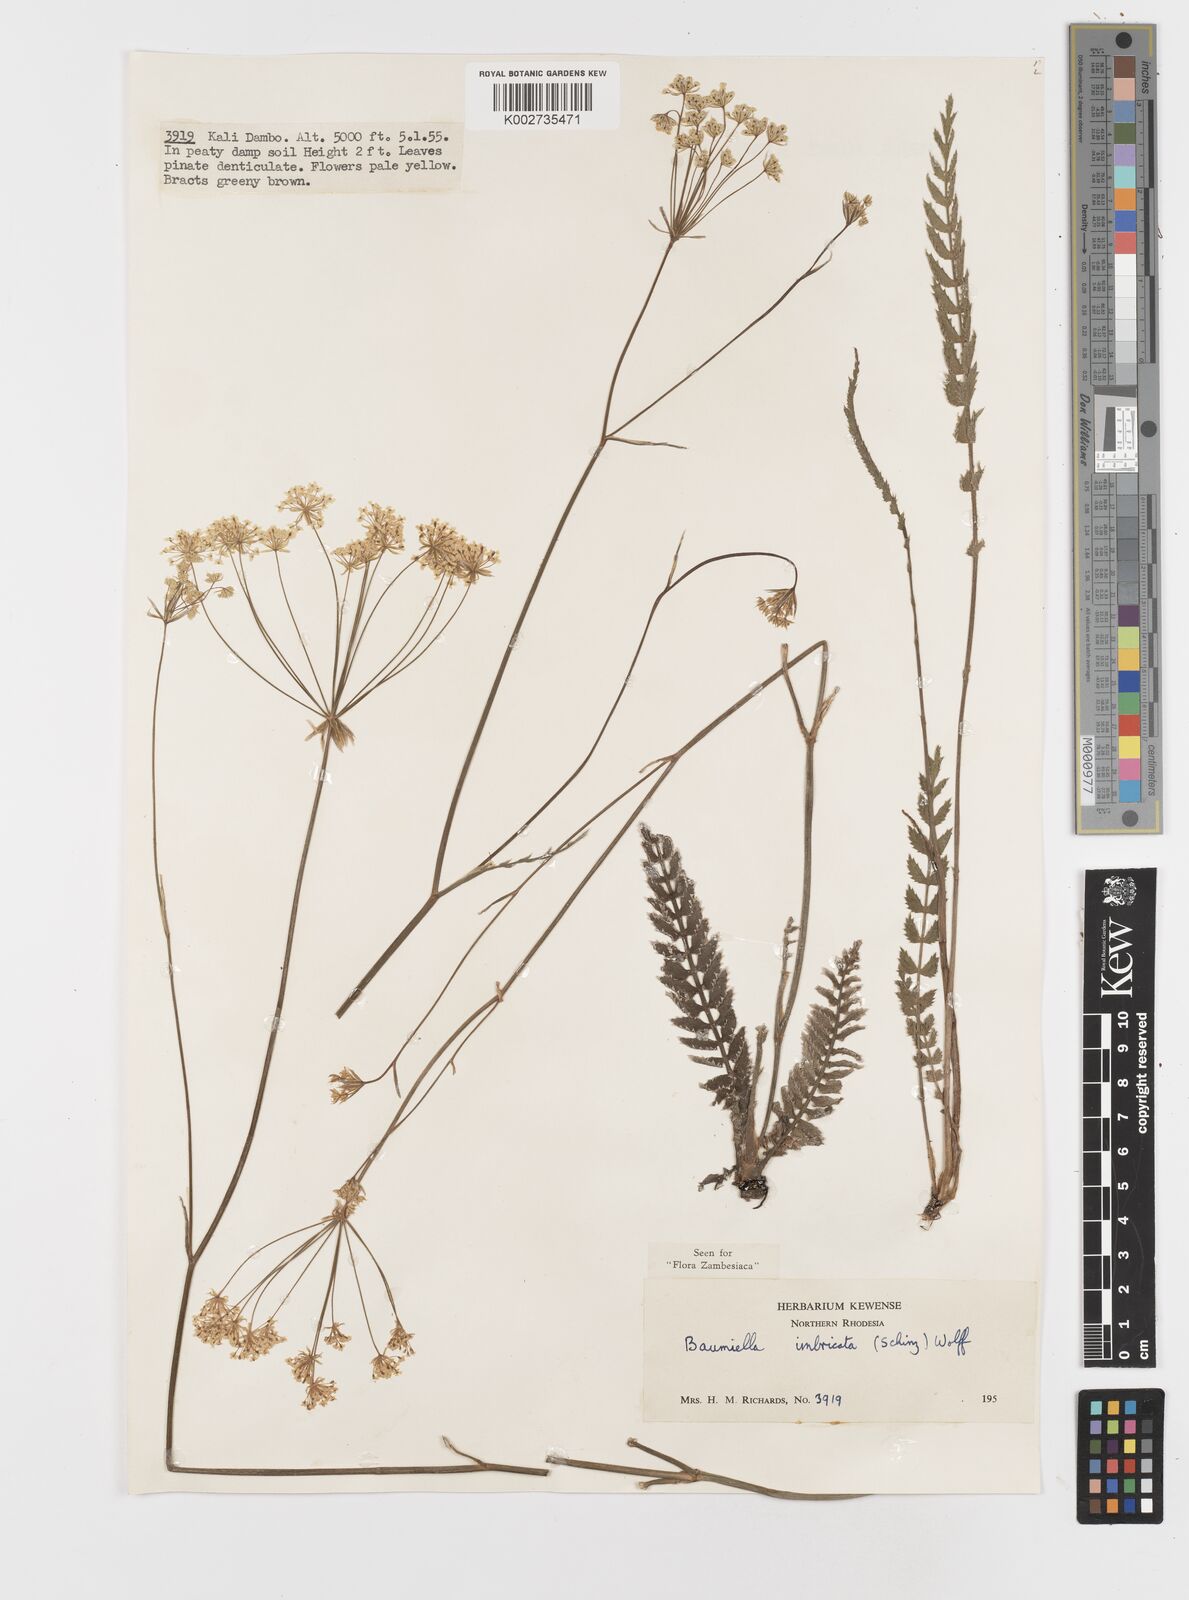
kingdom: Plantae
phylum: Tracheophyta
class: Magnoliopsida
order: Apiales
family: Apiaceae
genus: Berula
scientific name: Berula imbricata
